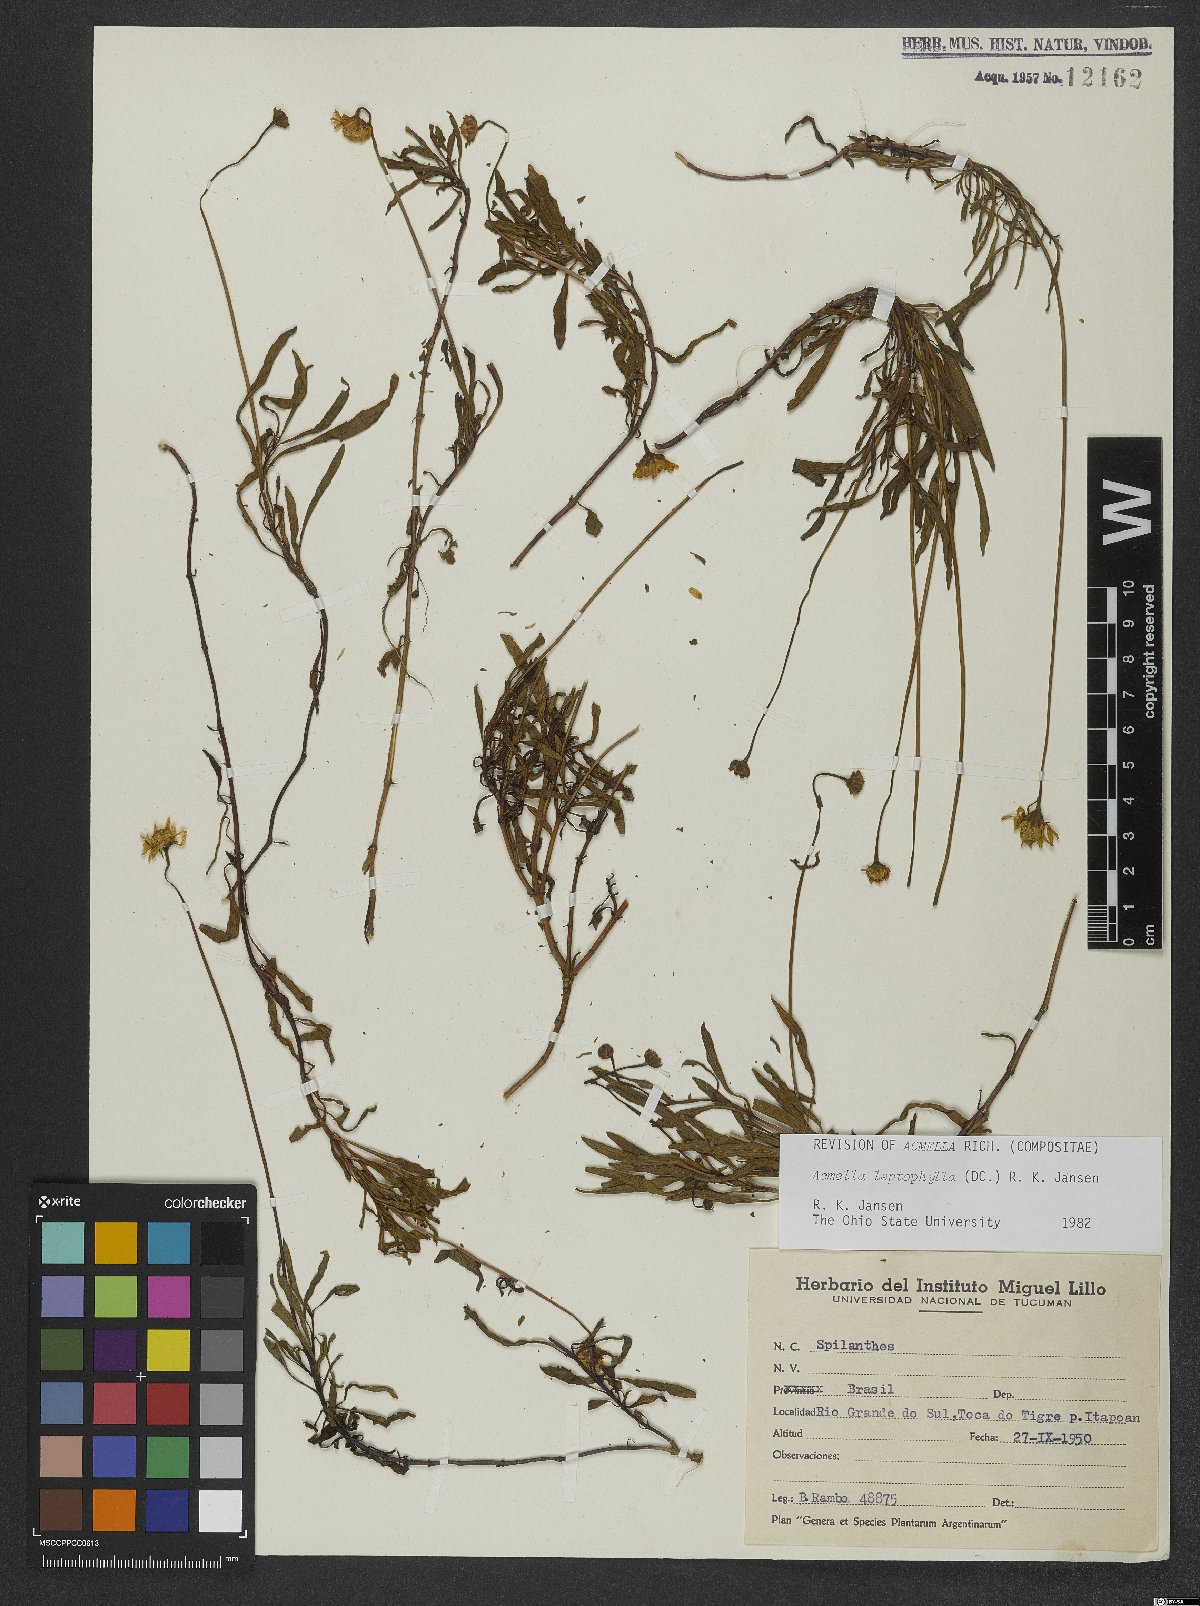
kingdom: Plantae
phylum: Tracheophyta
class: Magnoliopsida
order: Asterales
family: Asteraceae
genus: Acmella
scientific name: Acmella leptophylla
